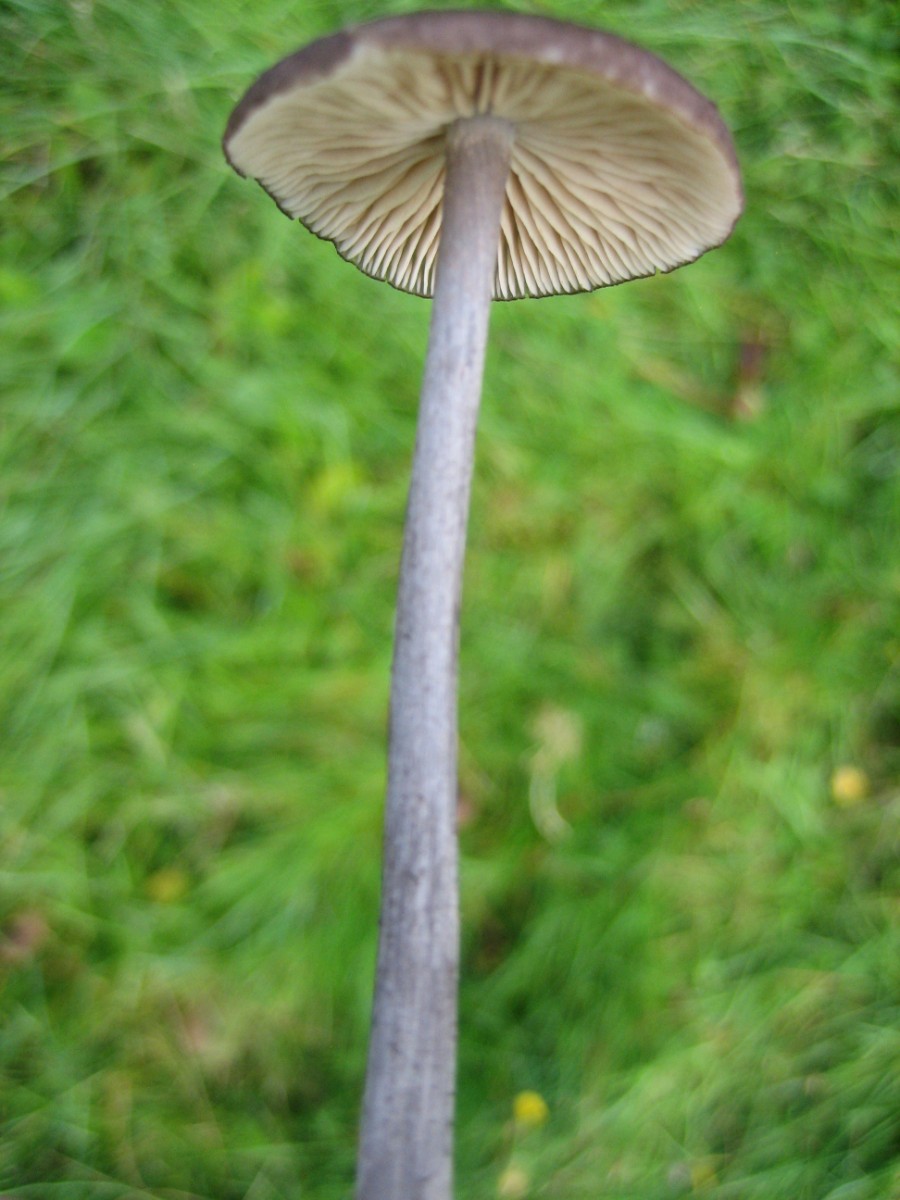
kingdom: Fungi
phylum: Basidiomycota
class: Agaricomycetes
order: Agaricales
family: Entolomataceae
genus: Entoloma
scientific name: Entoloma viiduense
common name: purpurbrun rødblad
